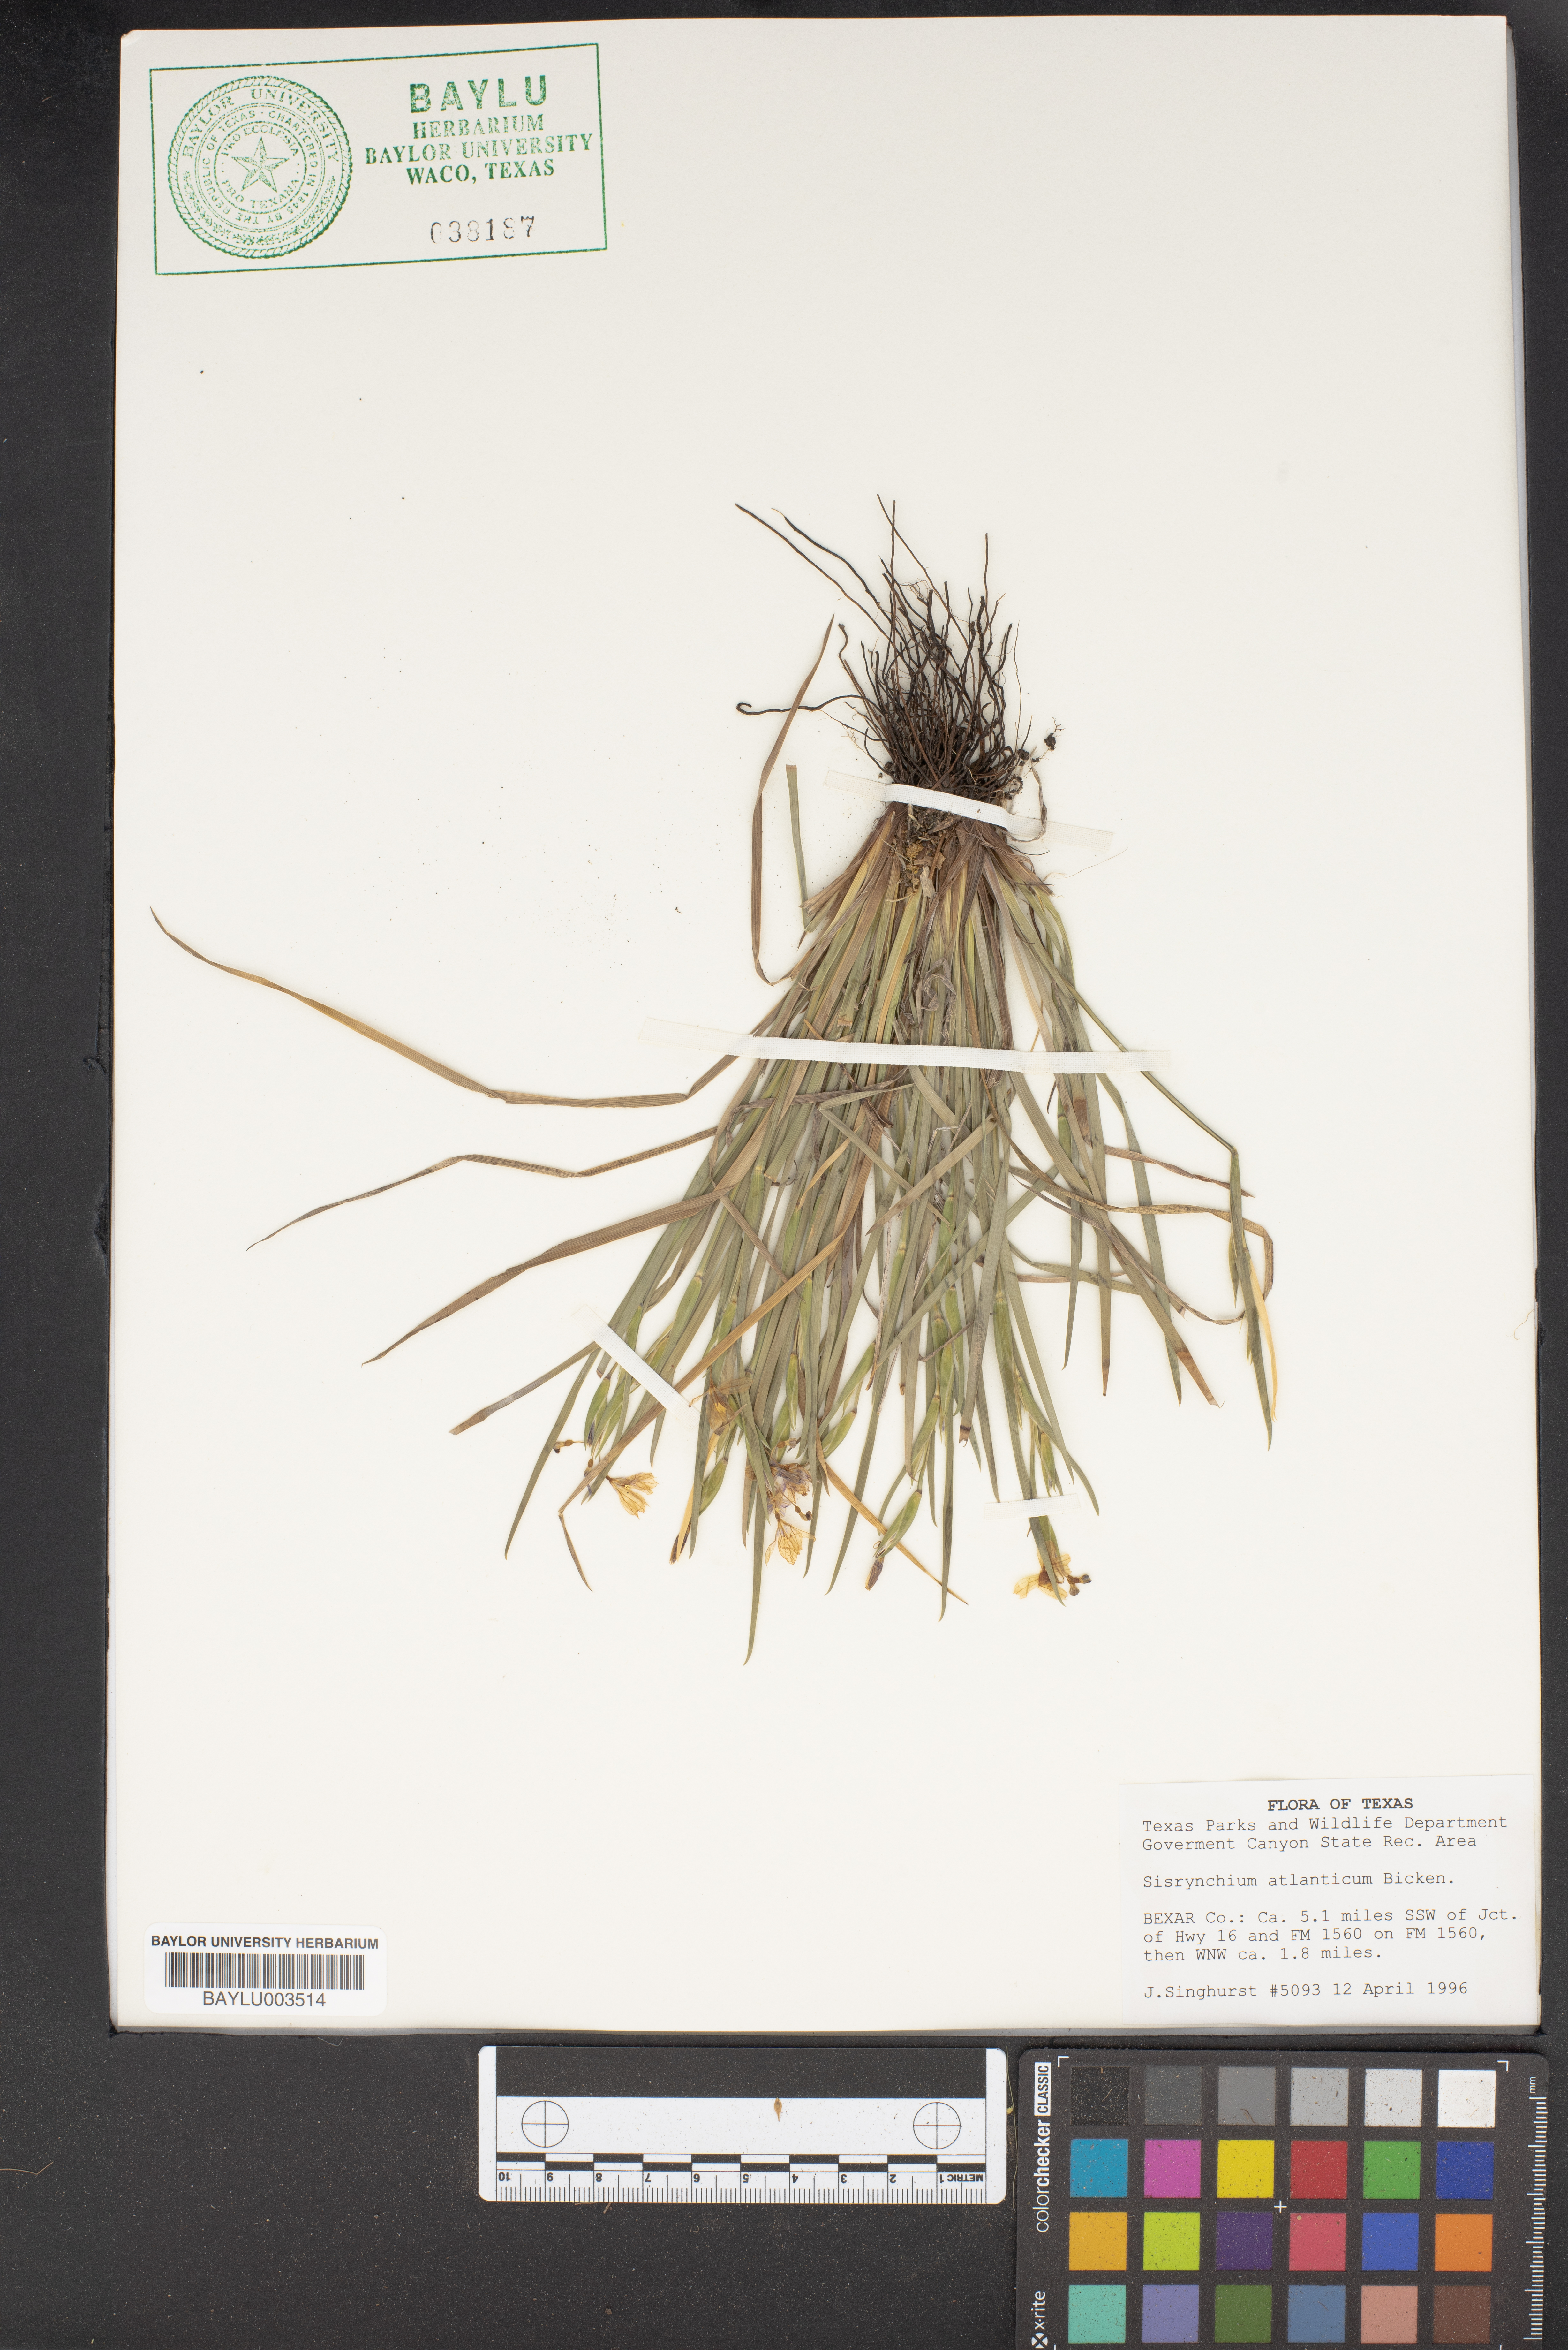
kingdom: Plantae
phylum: Tracheophyta
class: Liliopsida
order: Asparagales
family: Iridaceae
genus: Sisyrinchium
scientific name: Sisyrinchium atlanticum
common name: Eastern blue-eyed-grass
